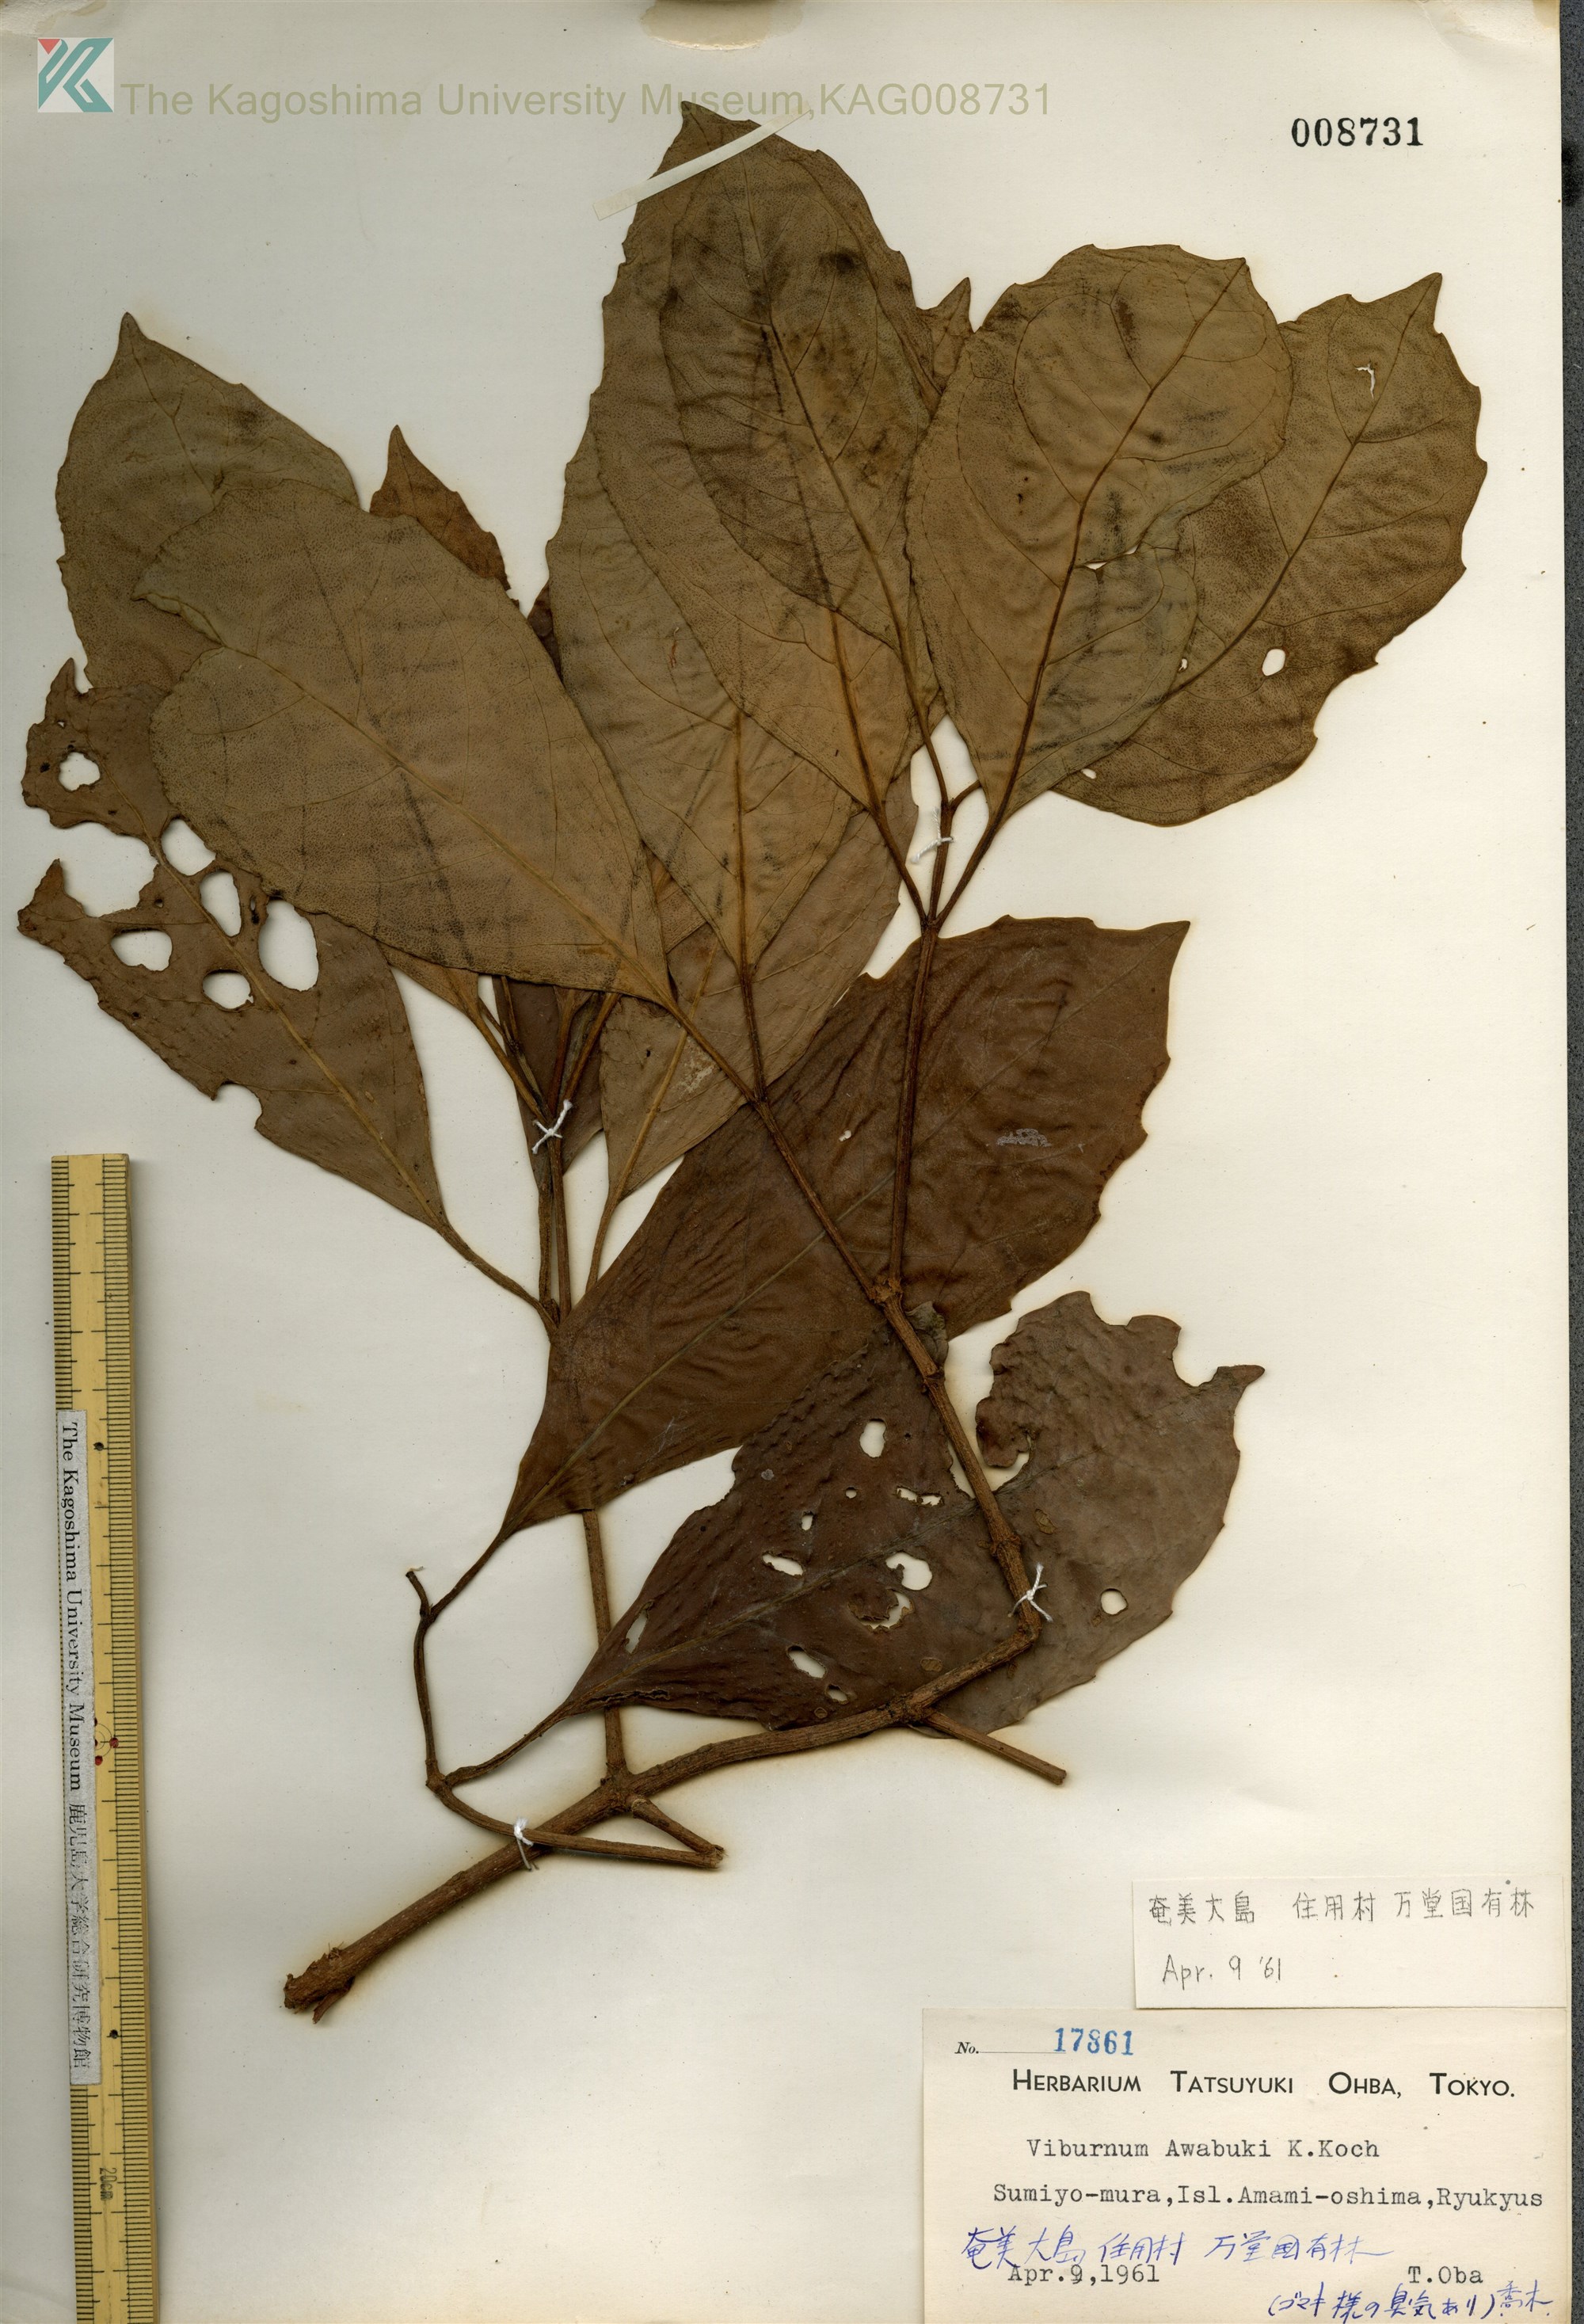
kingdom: Plantae
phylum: Tracheophyta
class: Magnoliopsida
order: Dipsacales
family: Viburnaceae
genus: Viburnum
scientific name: Viburnum odoratissimum
